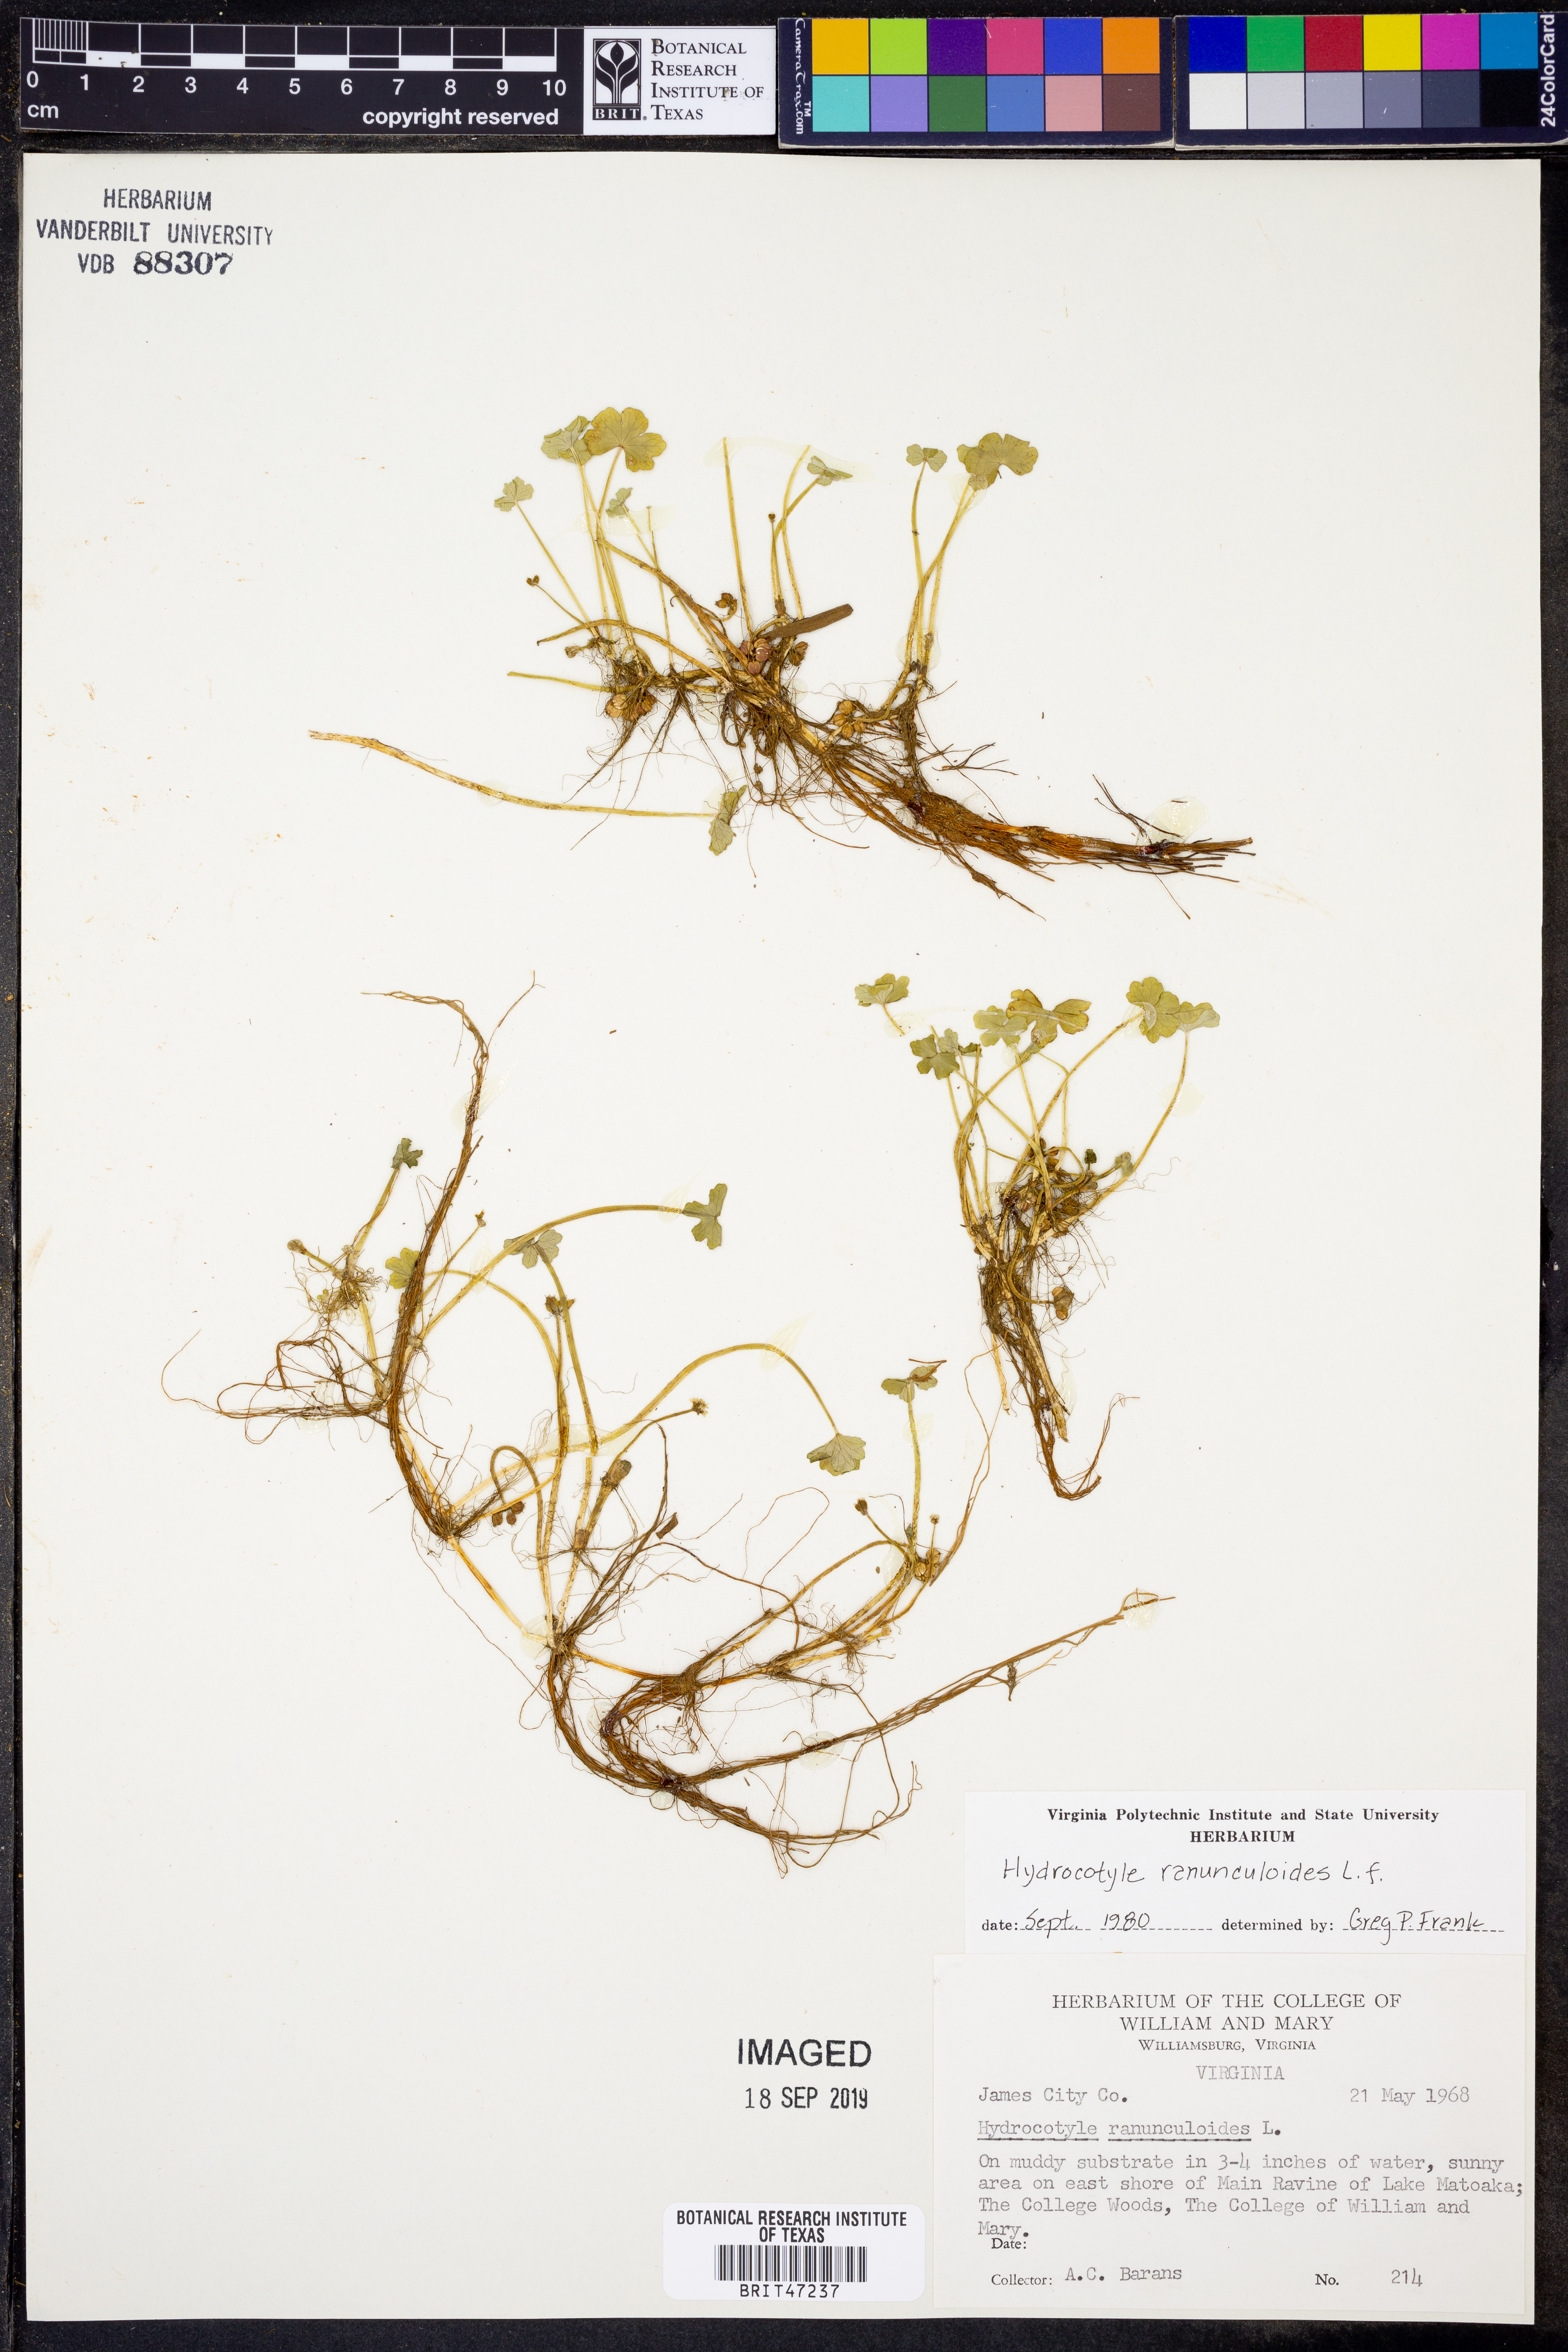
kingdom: Plantae
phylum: Tracheophyta
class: Magnoliopsida
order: Apiales
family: Araliaceae
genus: Hydrocotyle
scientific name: Hydrocotyle ranunculoides
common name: Floating pennywort
